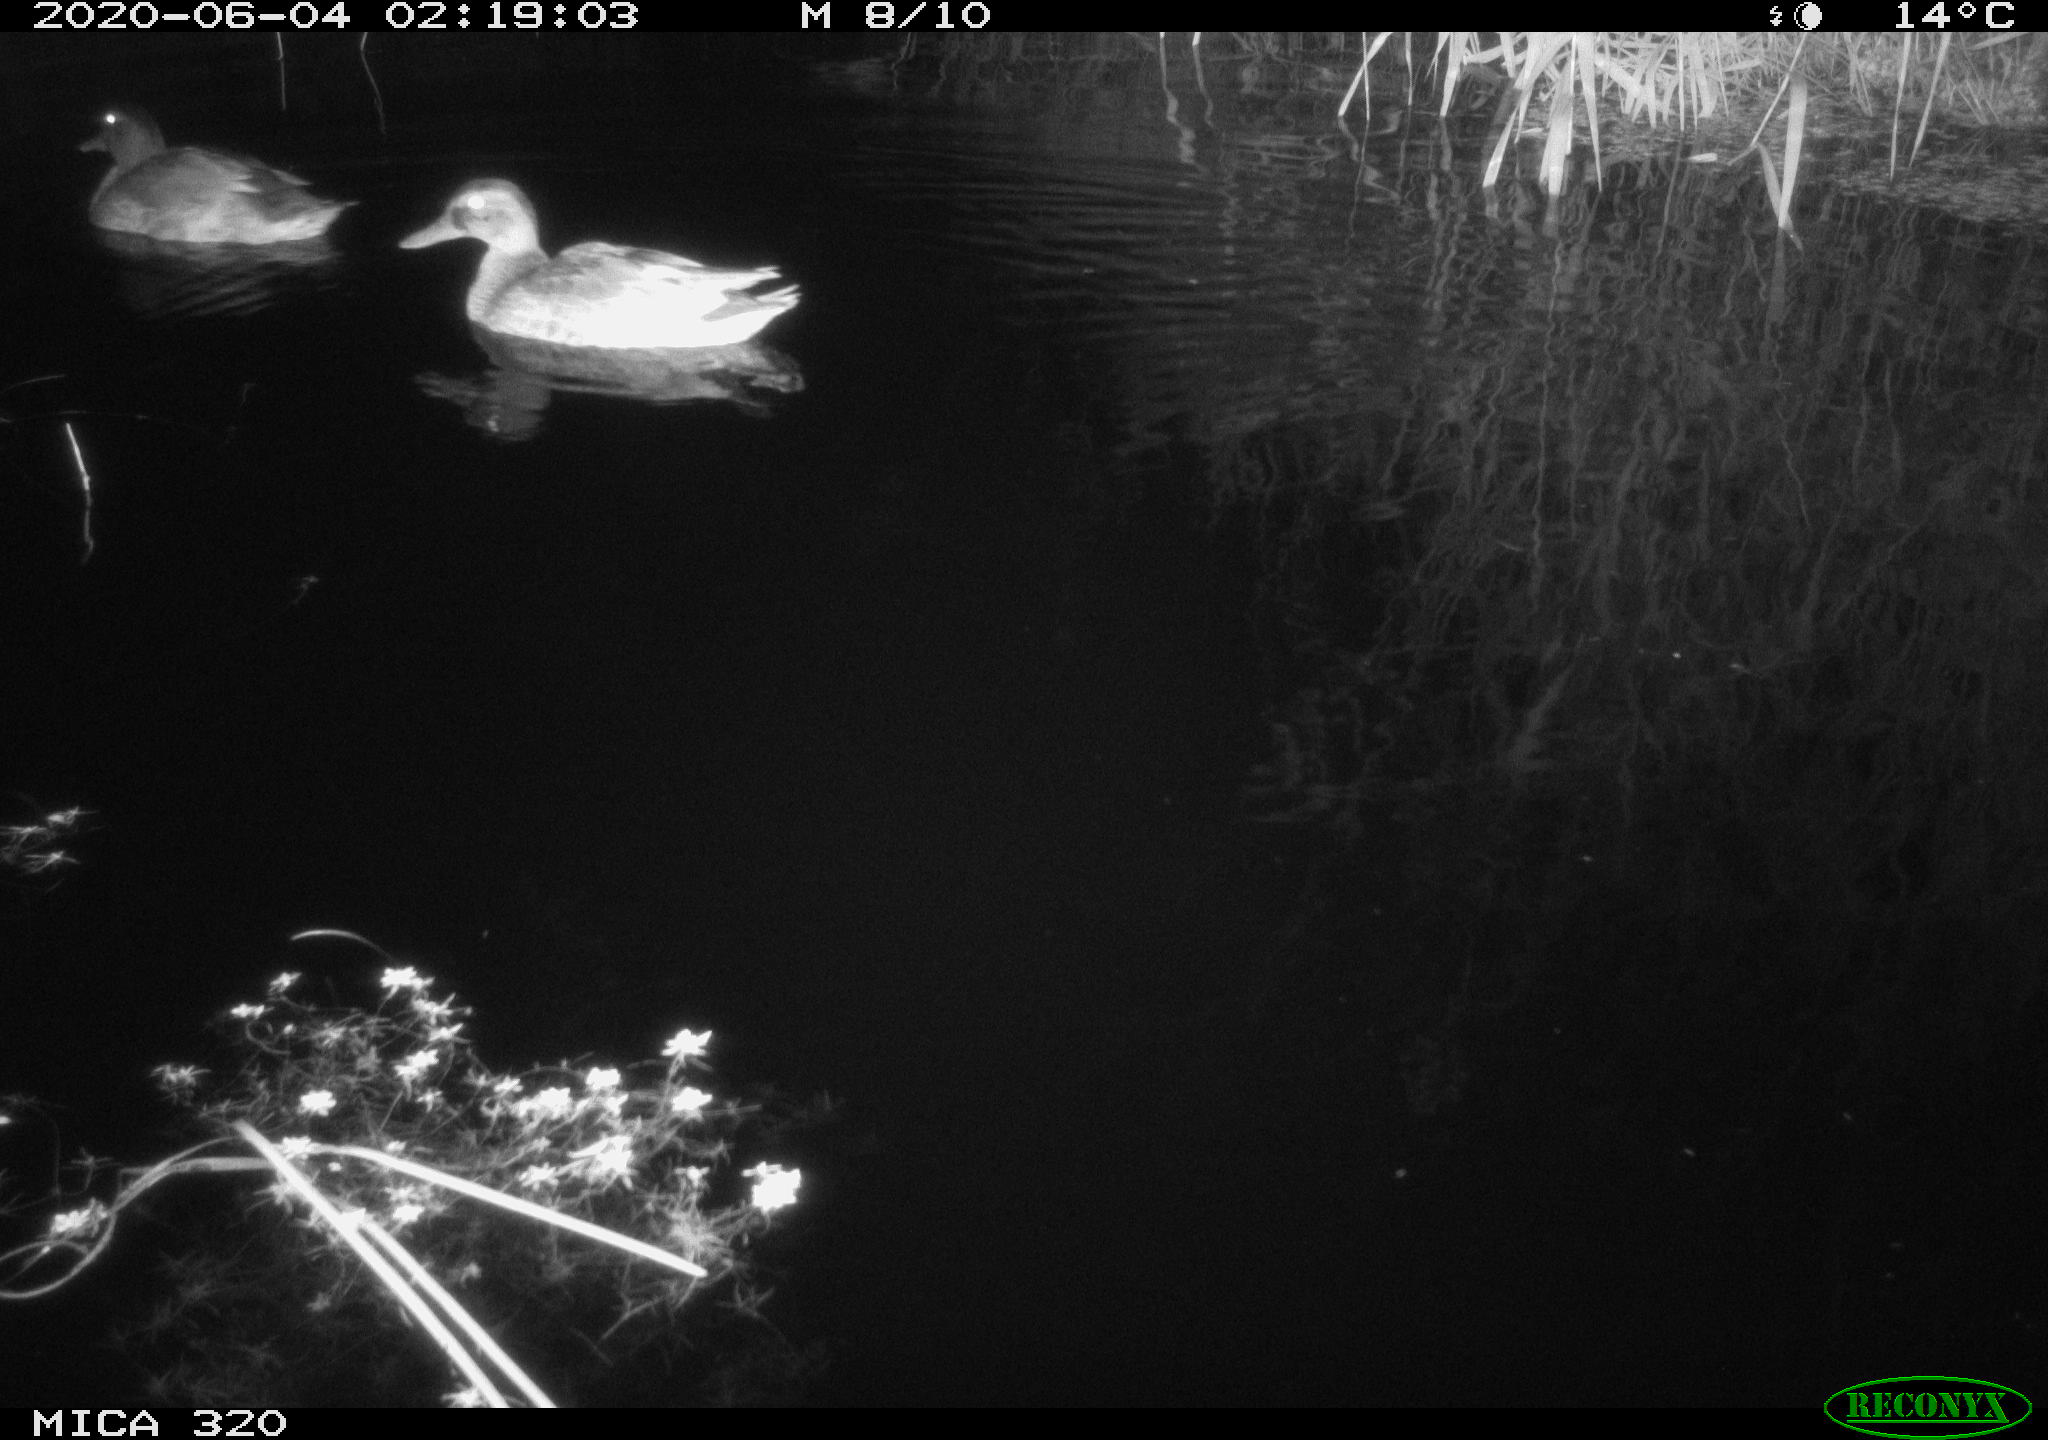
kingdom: Animalia
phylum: Chordata
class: Aves
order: Anseriformes
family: Anatidae
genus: Anas
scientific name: Anas platyrhynchos
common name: Mallard
